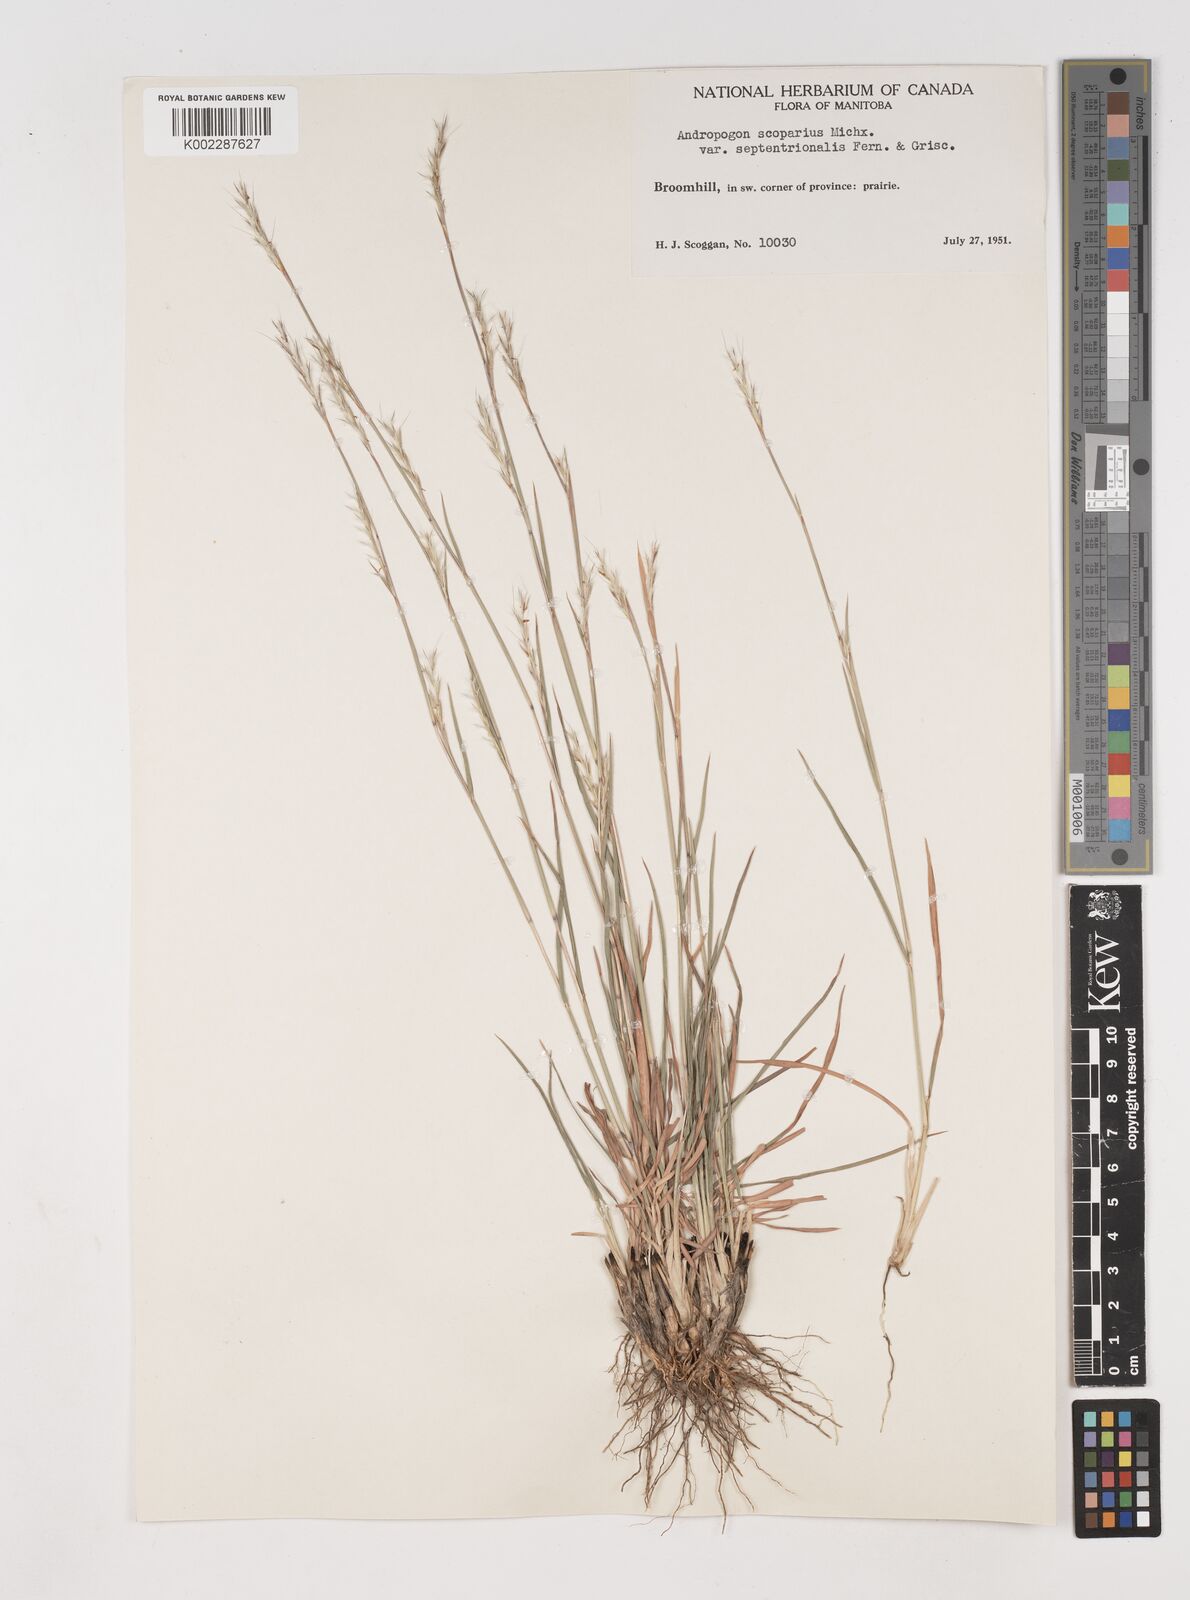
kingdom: Plantae
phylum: Tracheophyta
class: Liliopsida
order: Poales
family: Poaceae
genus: Schizachyrium
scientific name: Schizachyrium scoparium
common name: Little bluestem
